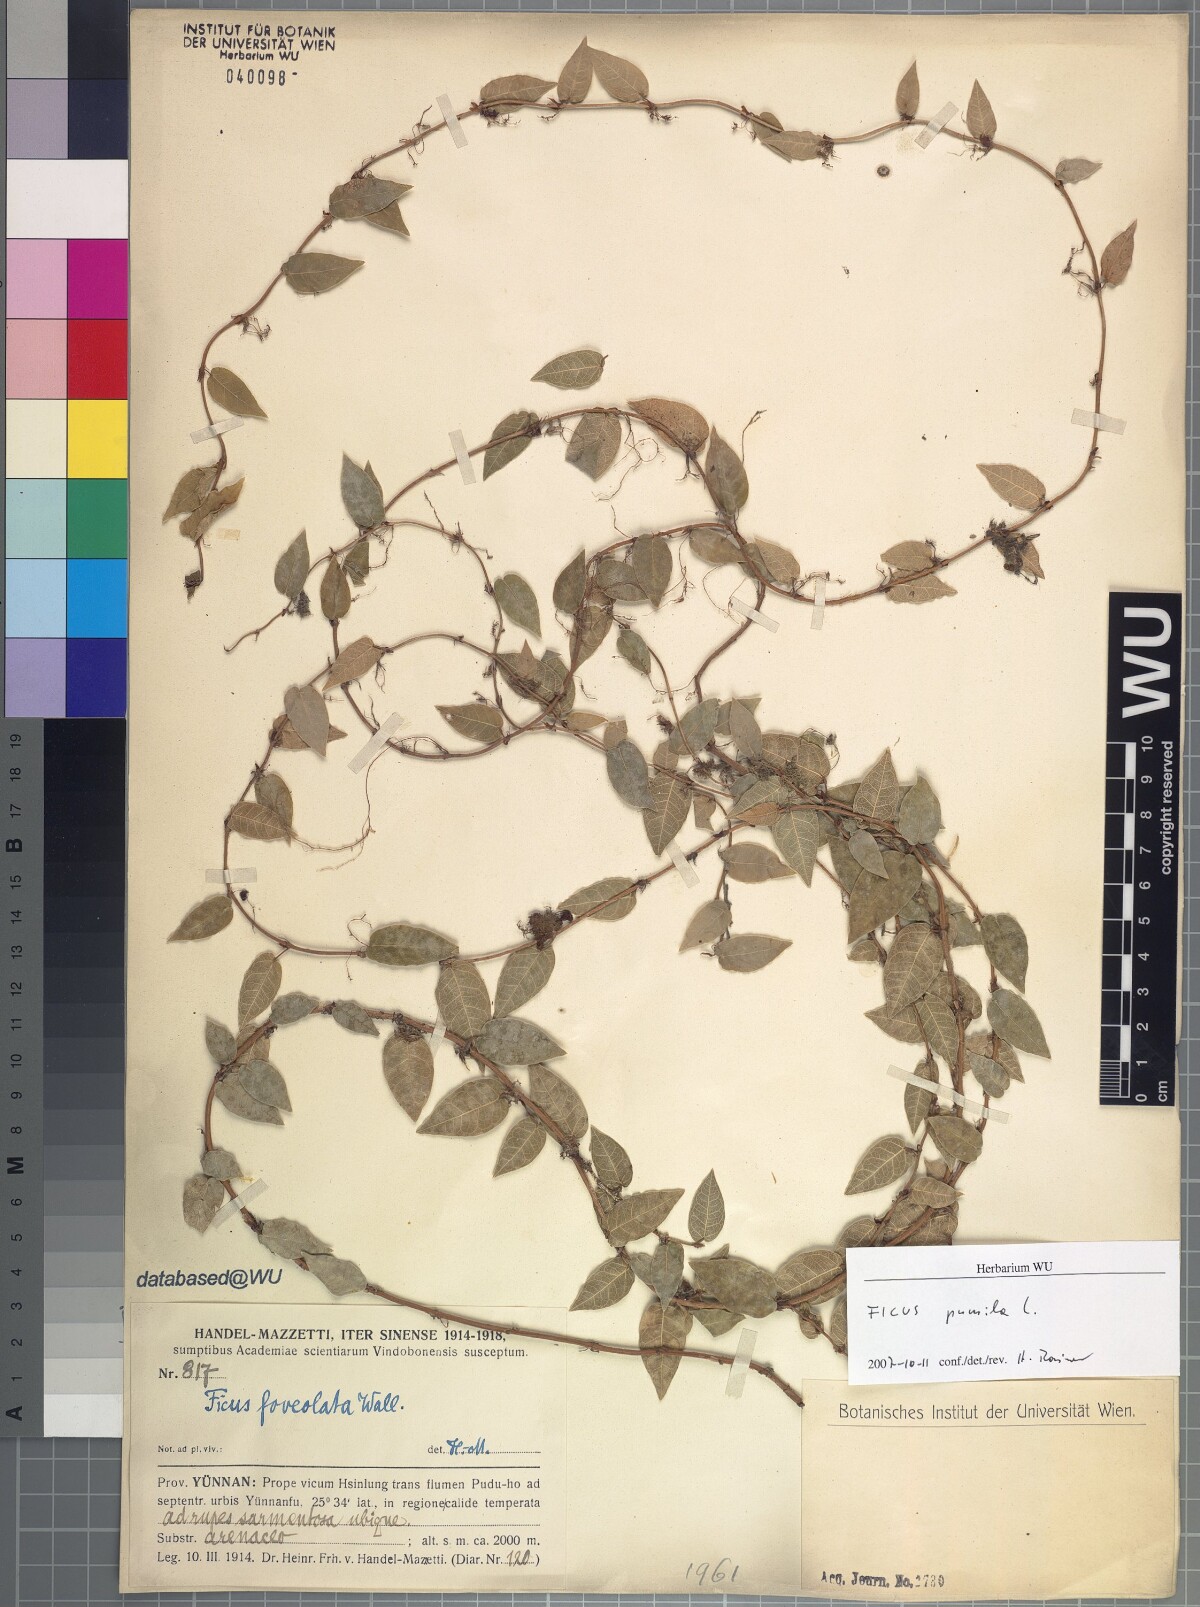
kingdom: Plantae
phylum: Tracheophyta
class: Magnoliopsida
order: Rosales
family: Moraceae
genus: Ficus
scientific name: Ficus pumila
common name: Climbingfig
